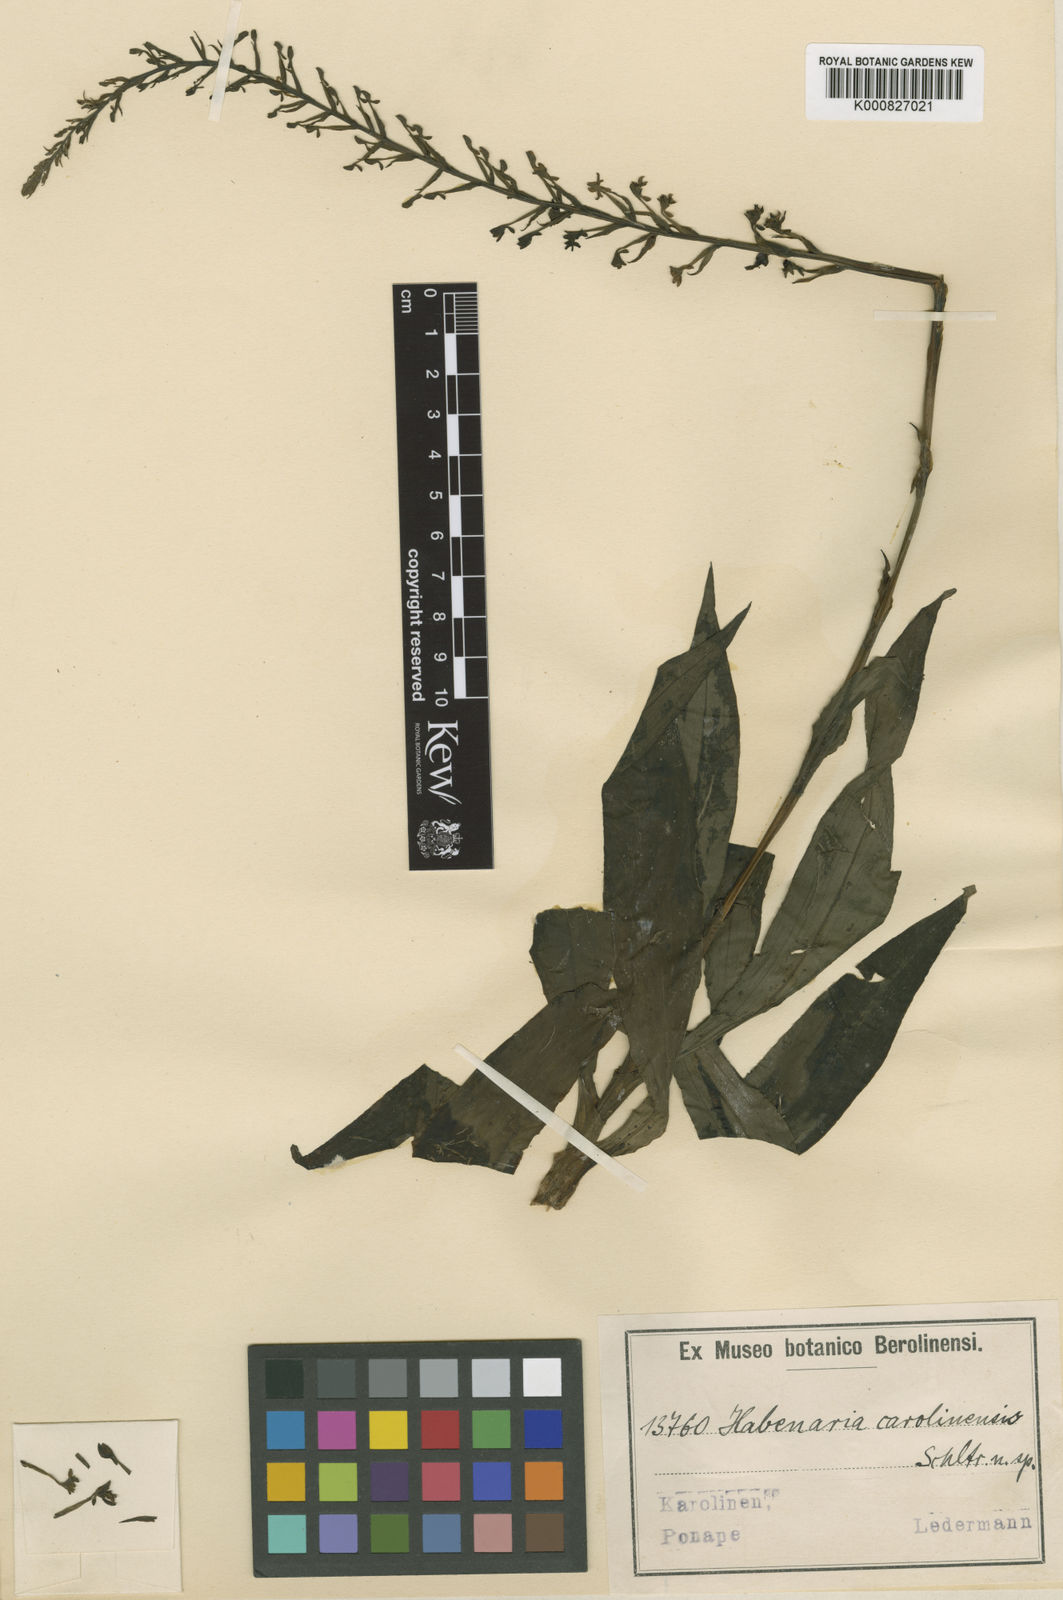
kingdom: Plantae
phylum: Tracheophyta
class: Liliopsida
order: Asparagales
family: Orchidaceae
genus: Peristylus
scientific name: Peristylus carolinensis
